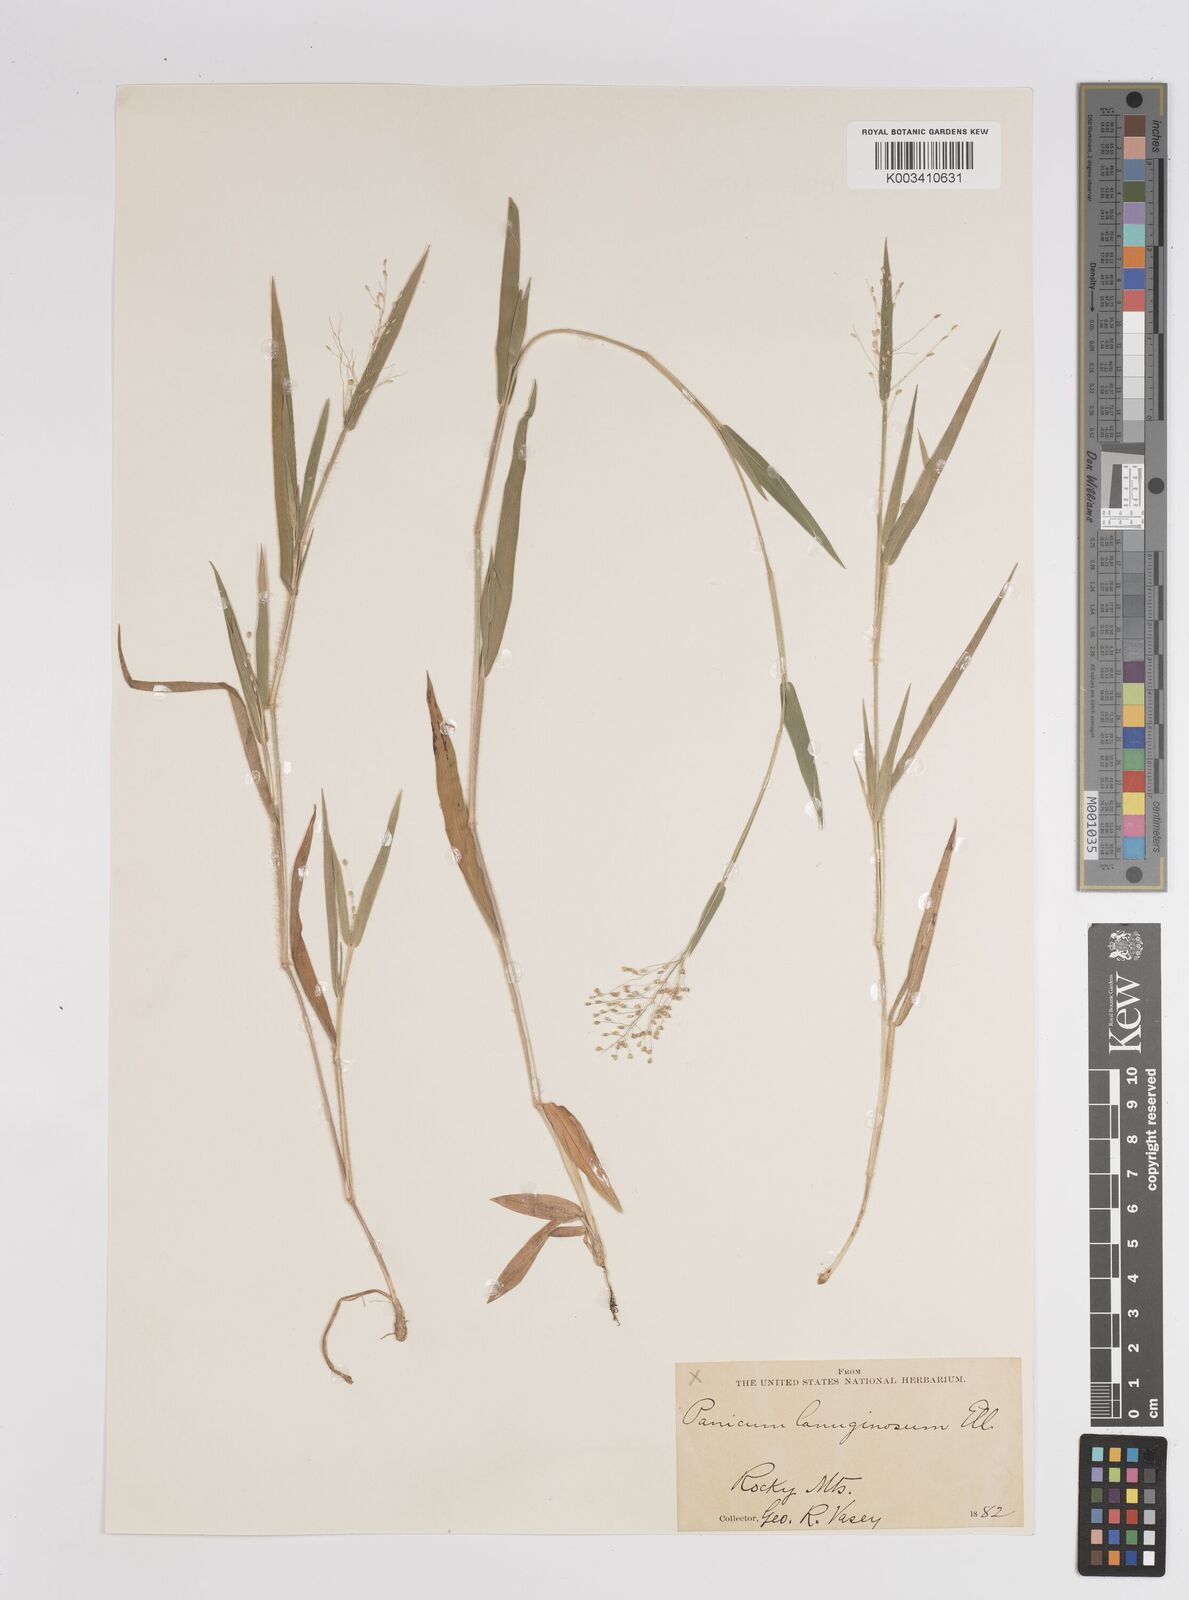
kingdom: Plantae
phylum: Tracheophyta
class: Liliopsida
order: Poales
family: Poaceae
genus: Dichanthelium
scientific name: Dichanthelium lanuginosum
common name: Woolly panicgrass
